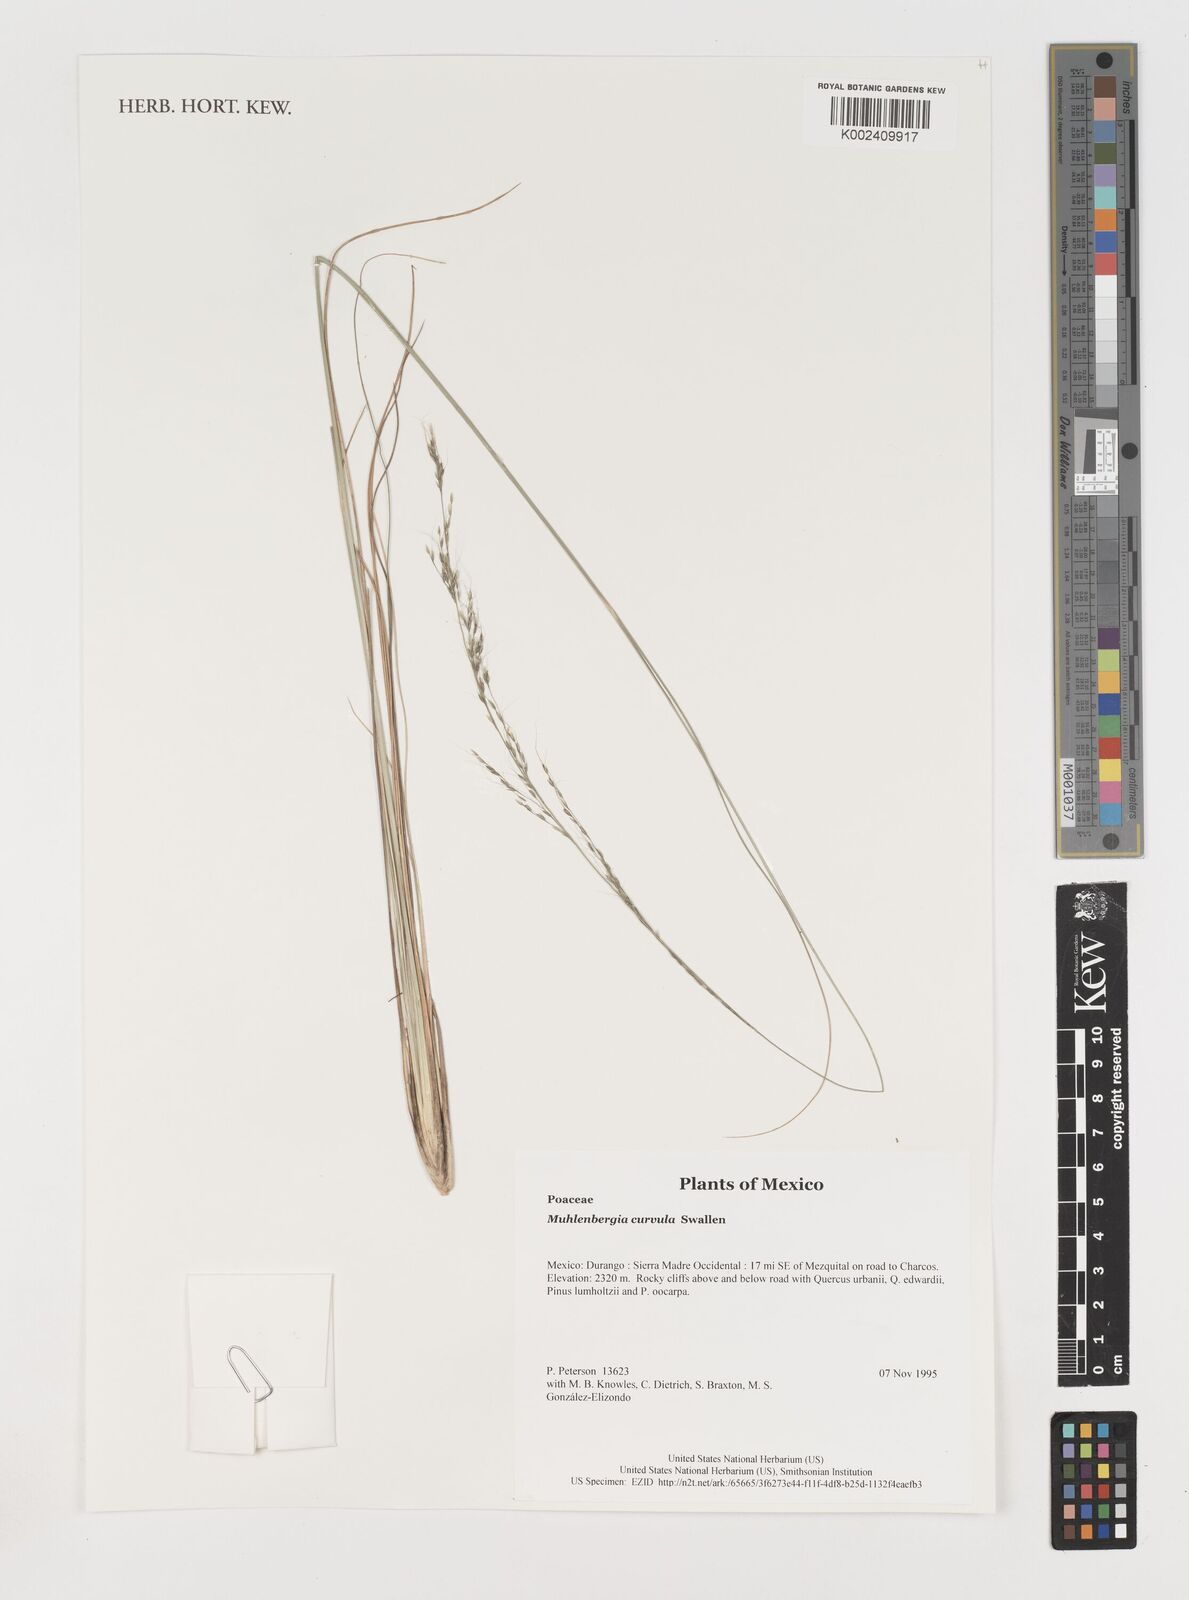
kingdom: Plantae
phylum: Tracheophyta
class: Liliopsida
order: Poales
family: Poaceae
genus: Muhlenbergia
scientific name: Muhlenbergia virescens
